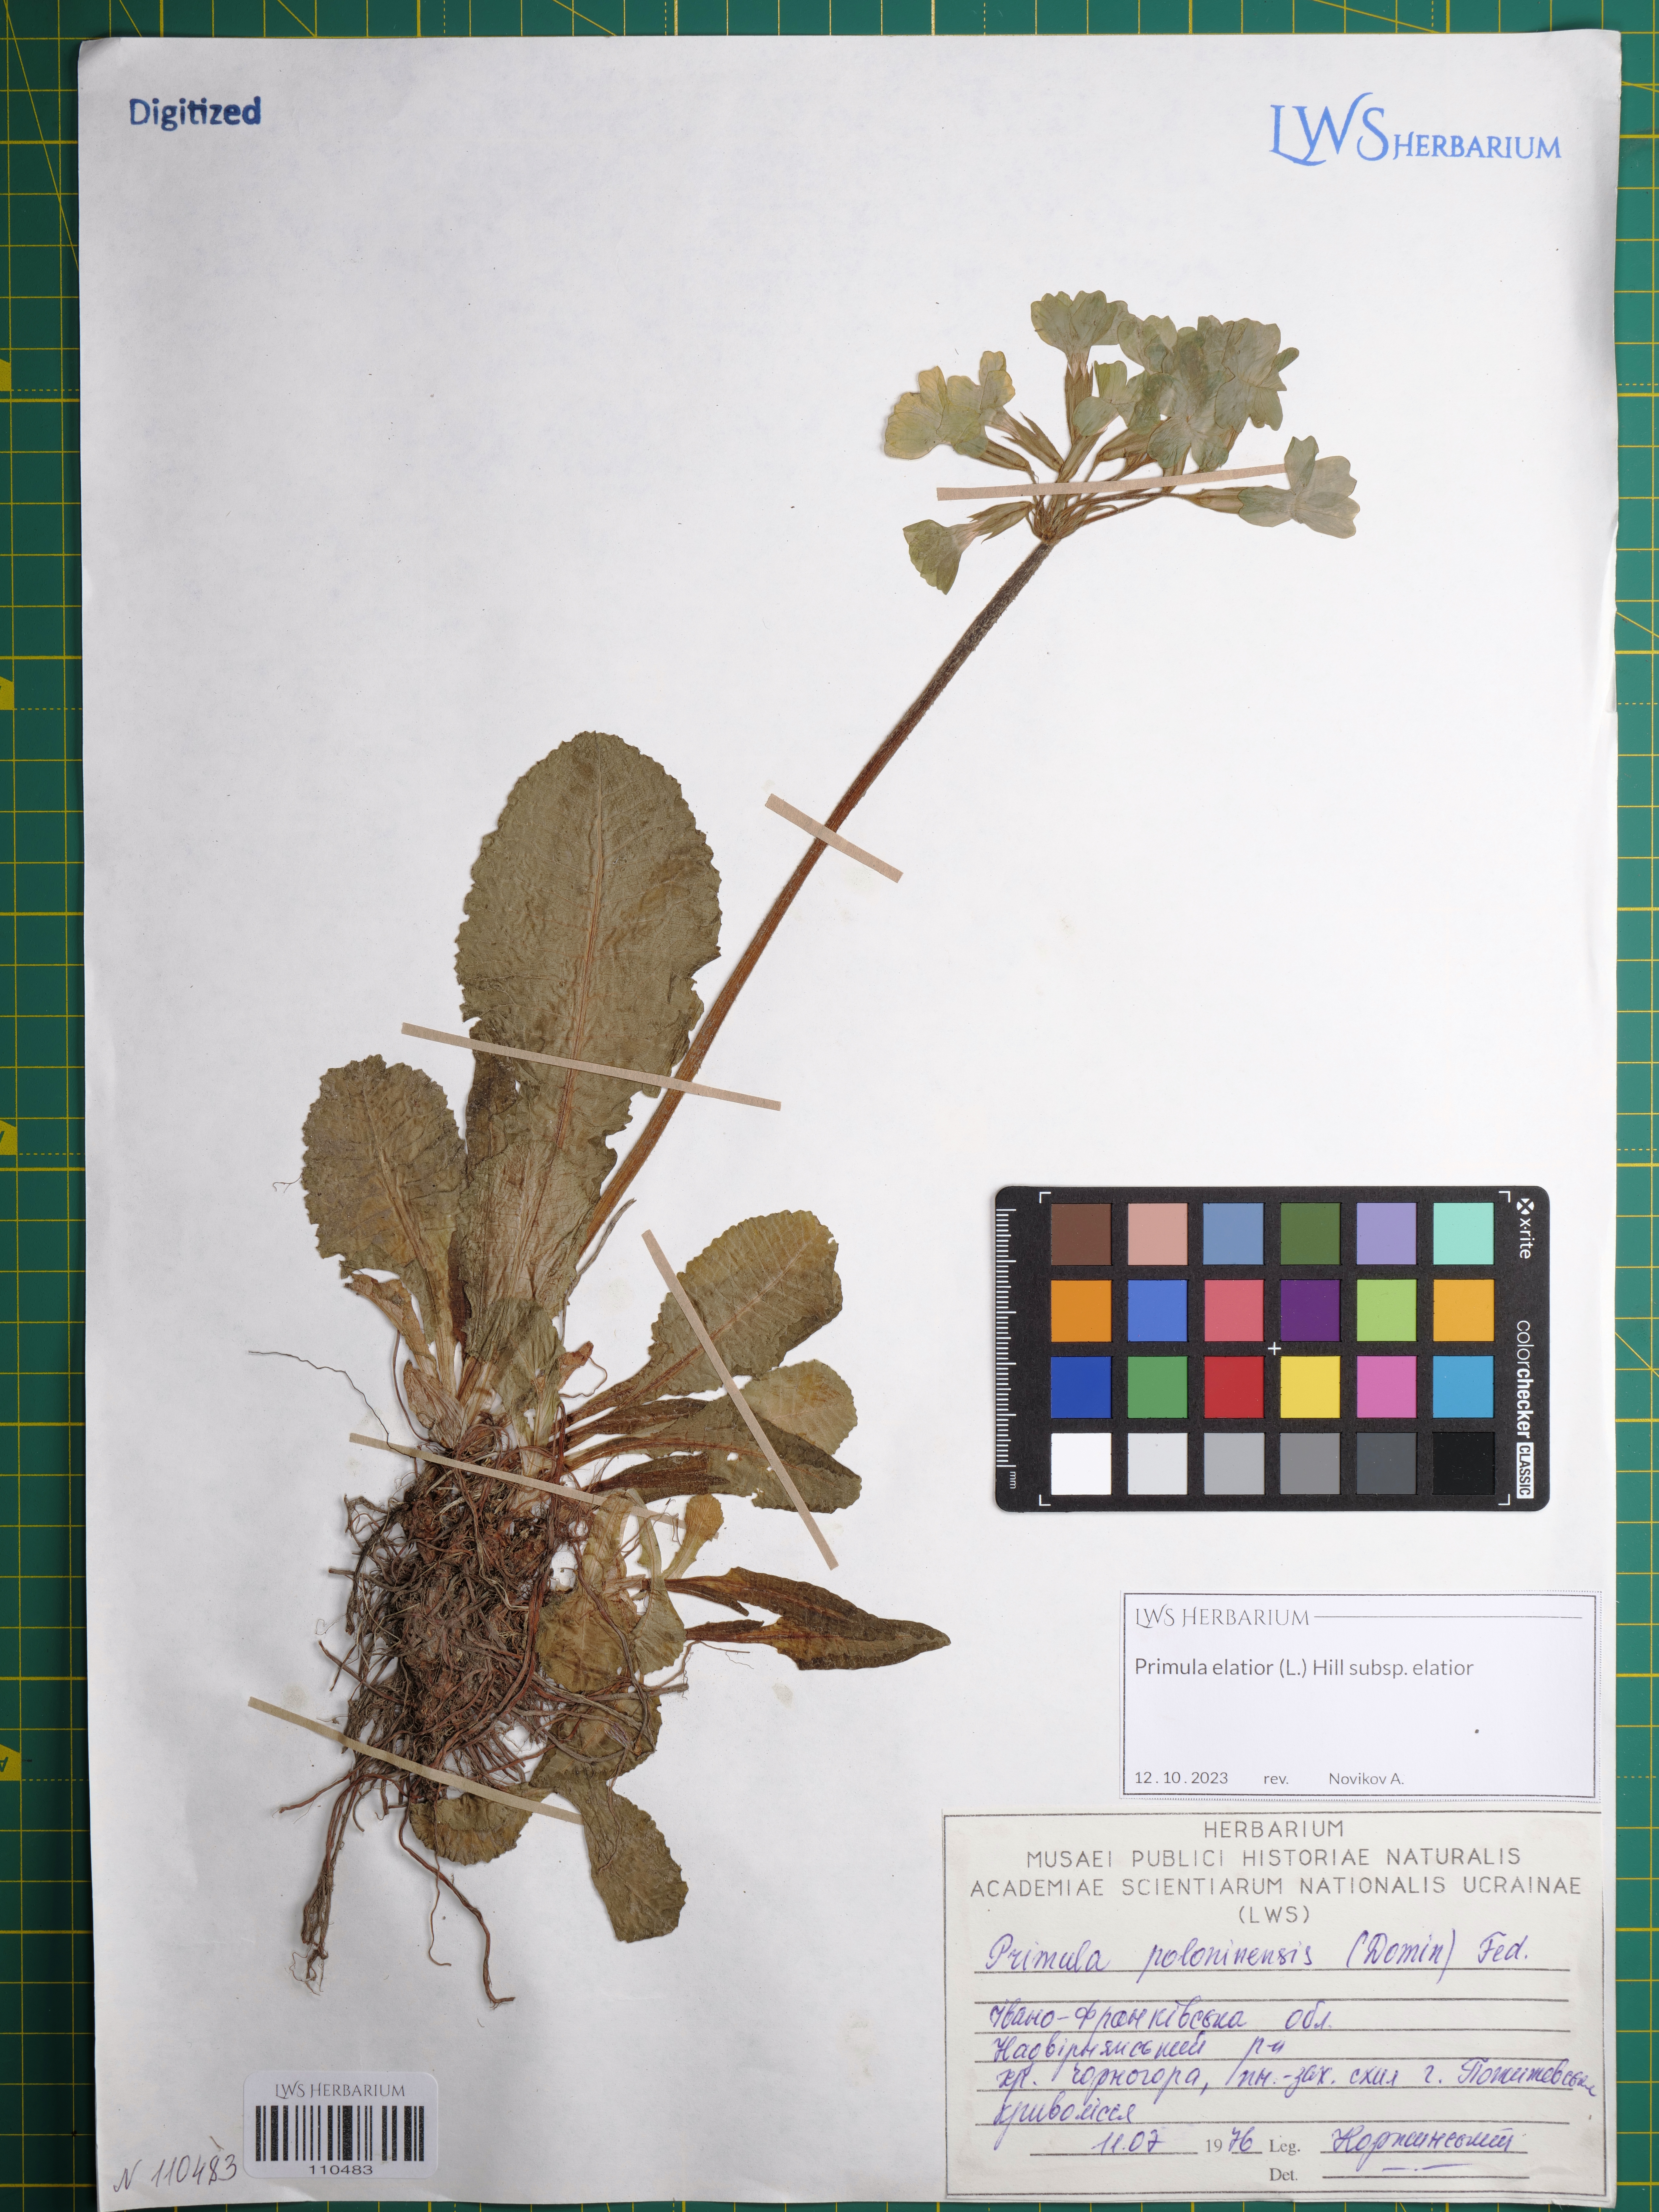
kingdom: Plantae
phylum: Tracheophyta
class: Magnoliopsida
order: Ericales
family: Primulaceae
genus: Primula
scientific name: Primula elatior
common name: Oxlip
